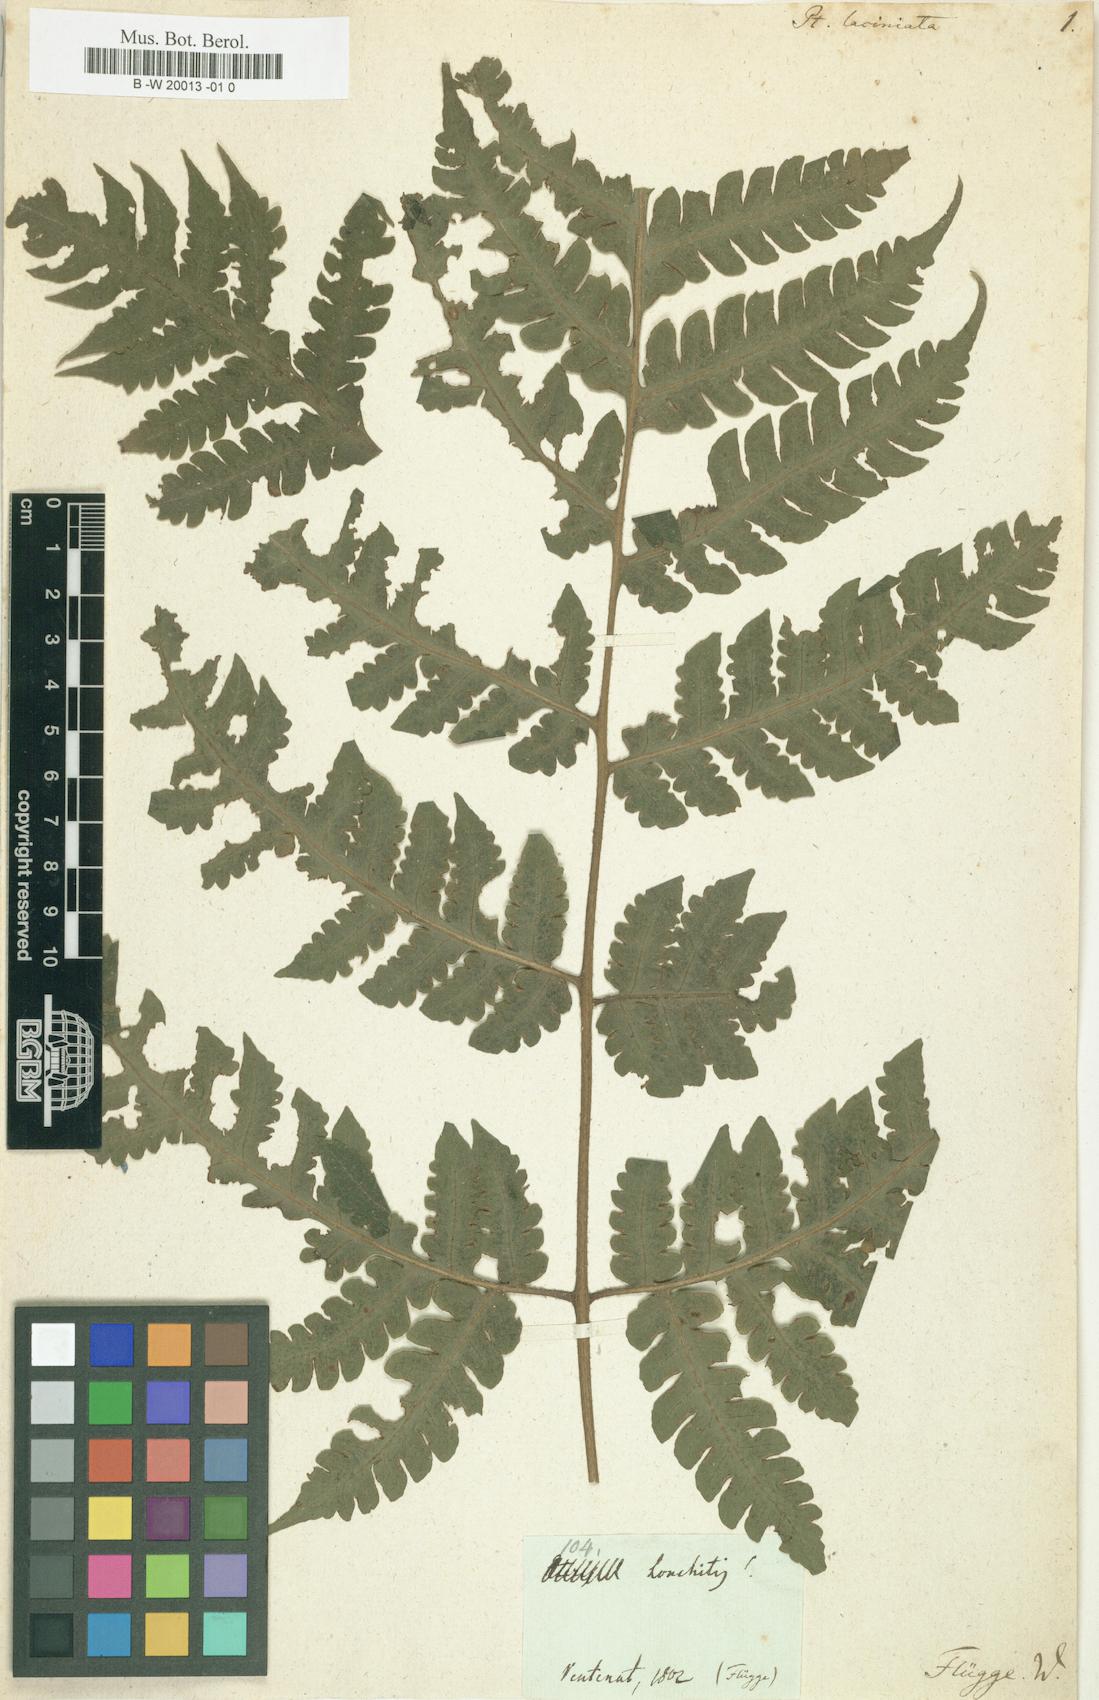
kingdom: Plantae
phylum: Tracheophyta
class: Polypodiopsida
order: Polypodiales
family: Lonchitidaceae
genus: Lonchitis
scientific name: Lonchitis hirsuta
